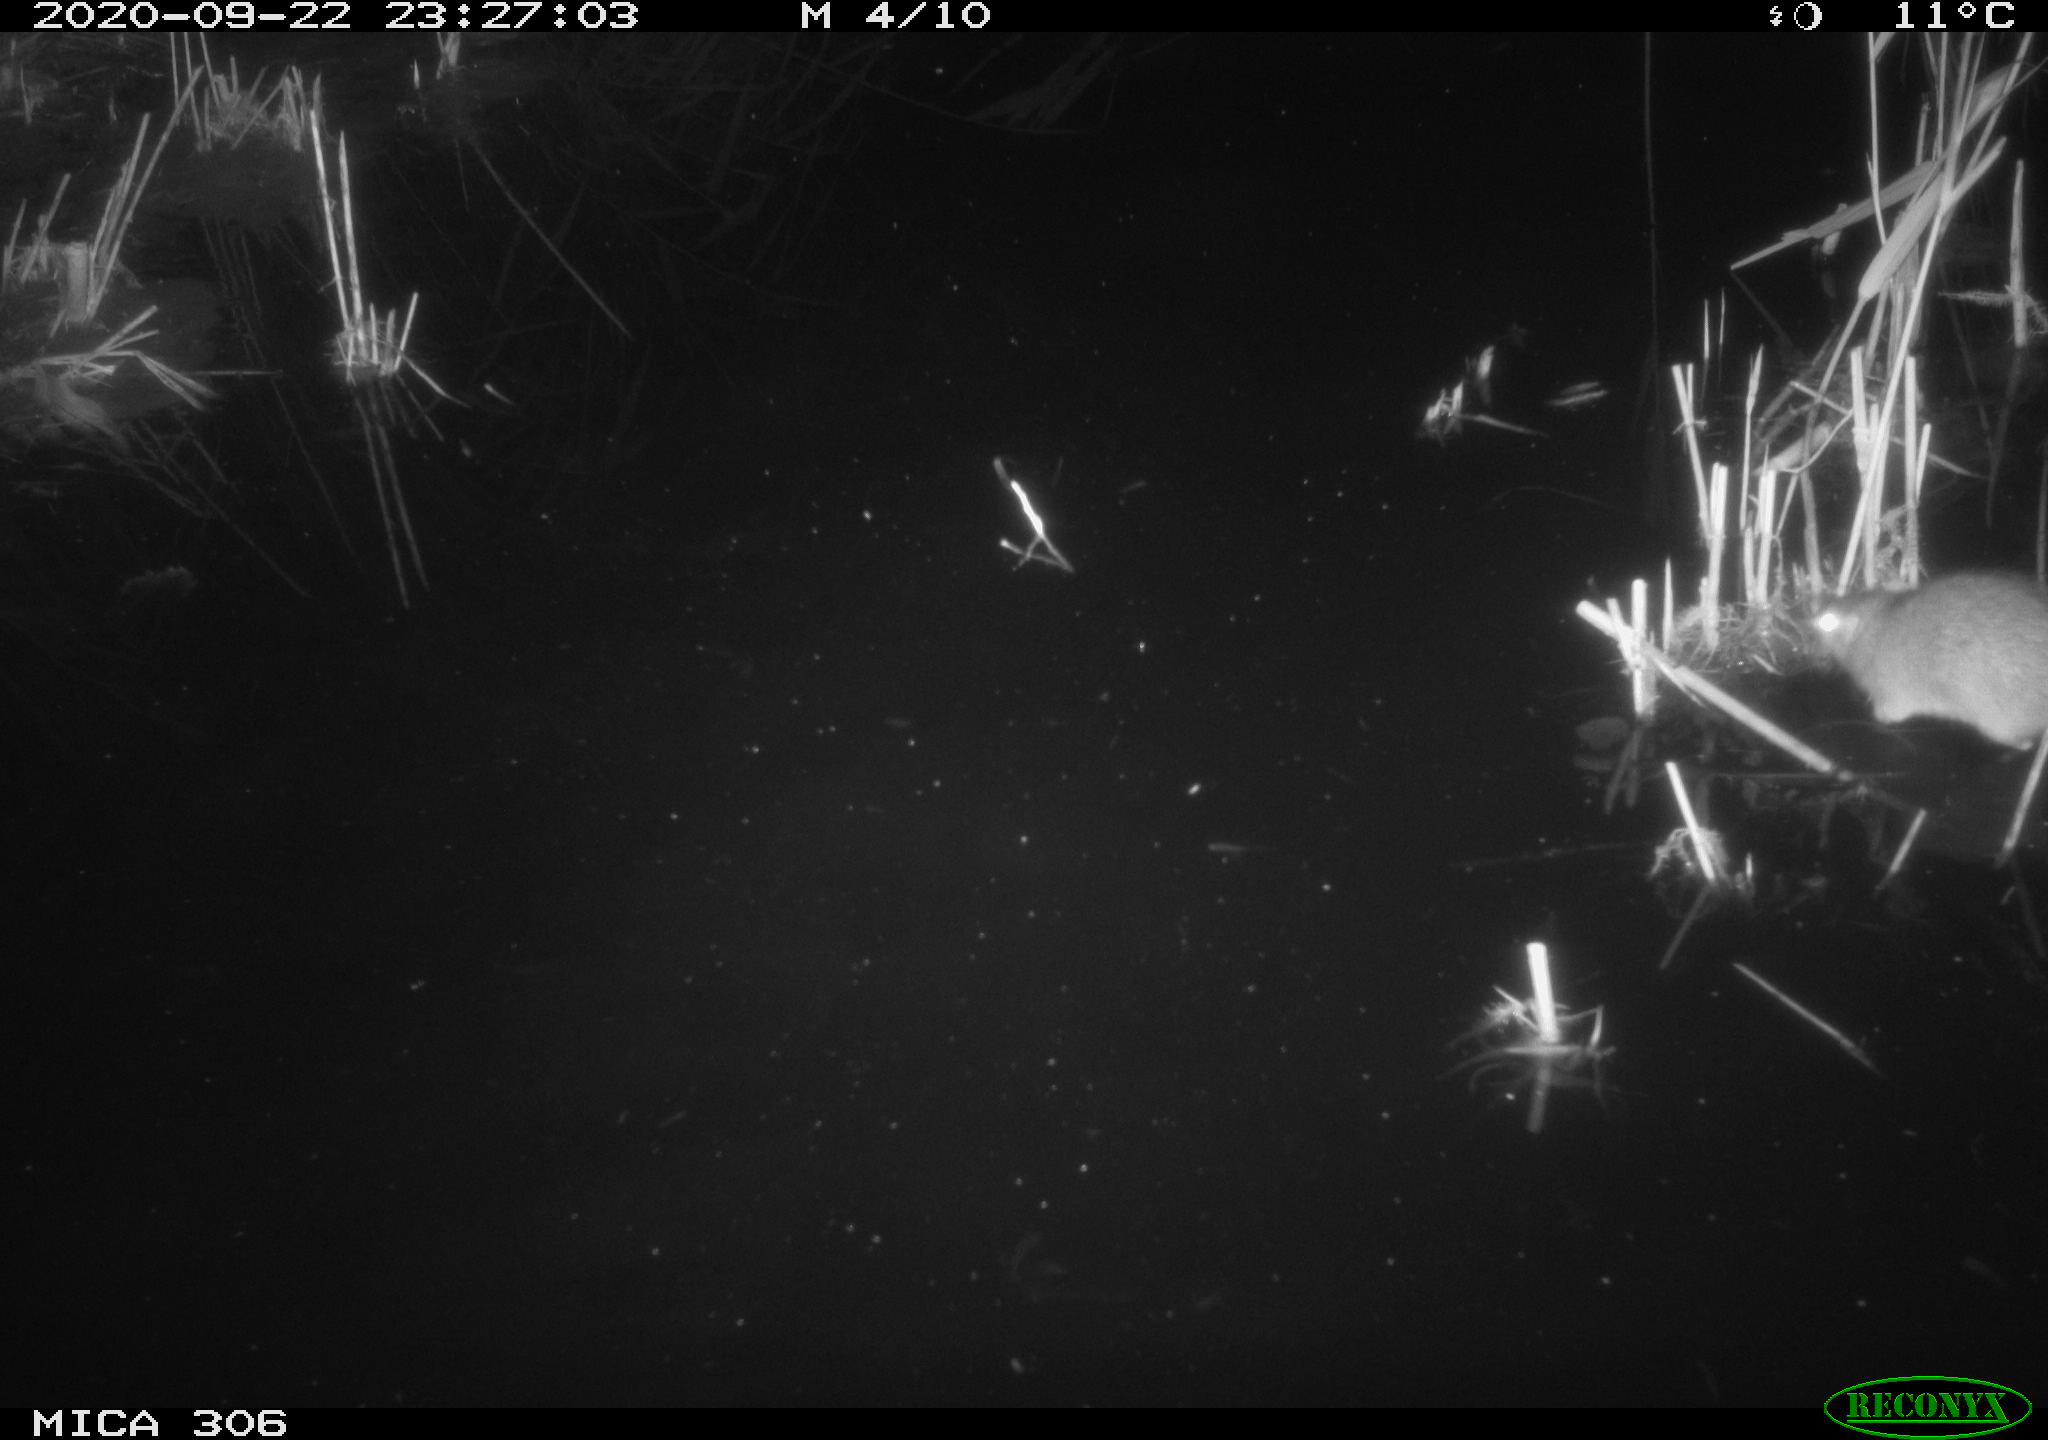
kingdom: Animalia
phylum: Chordata
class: Mammalia
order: Rodentia
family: Muridae
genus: Rattus
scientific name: Rattus norvegicus
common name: Brown rat
